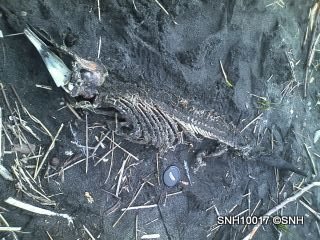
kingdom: Animalia
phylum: Chordata
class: Mammalia
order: Cetacea
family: Phocoenidae
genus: Phocoena
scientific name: Phocoena phocoena
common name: Harbour porpoise
